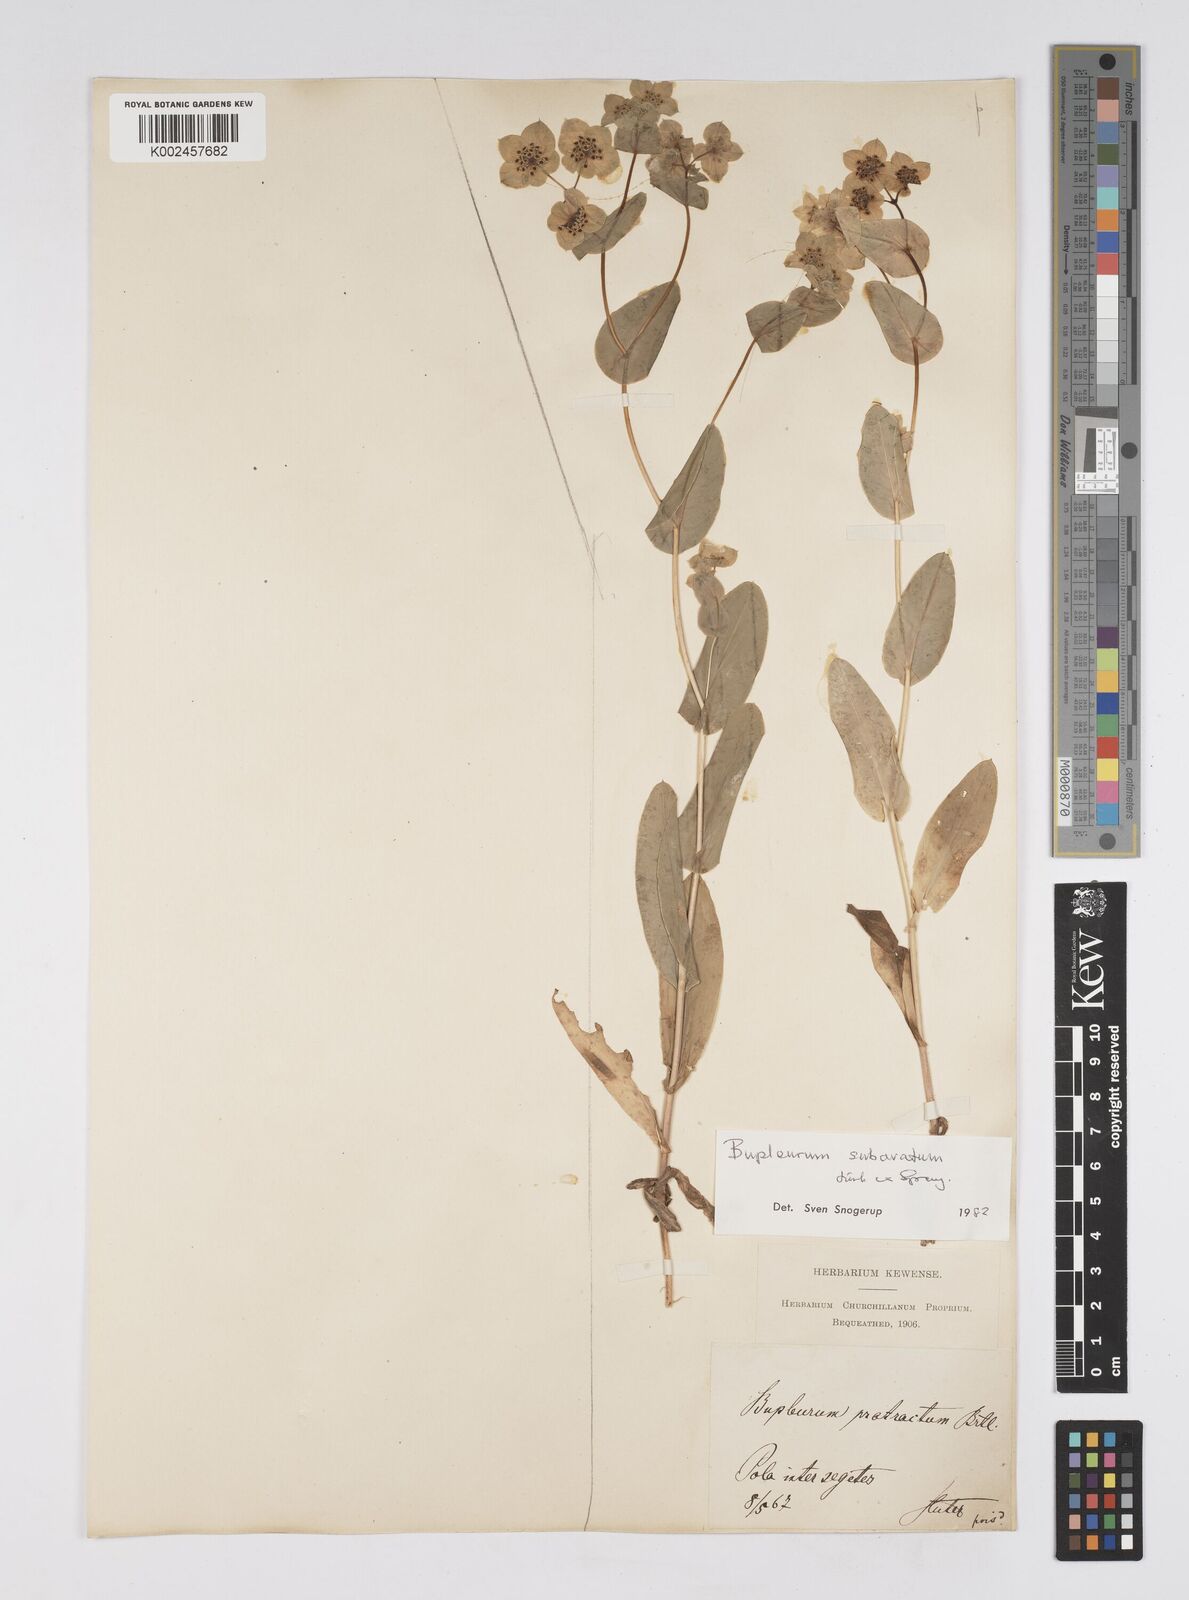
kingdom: Plantae
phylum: Tracheophyta
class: Magnoliopsida
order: Apiales
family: Apiaceae
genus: Bupleurum
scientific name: Bupleurum lancifolium
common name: False thorow-wax
